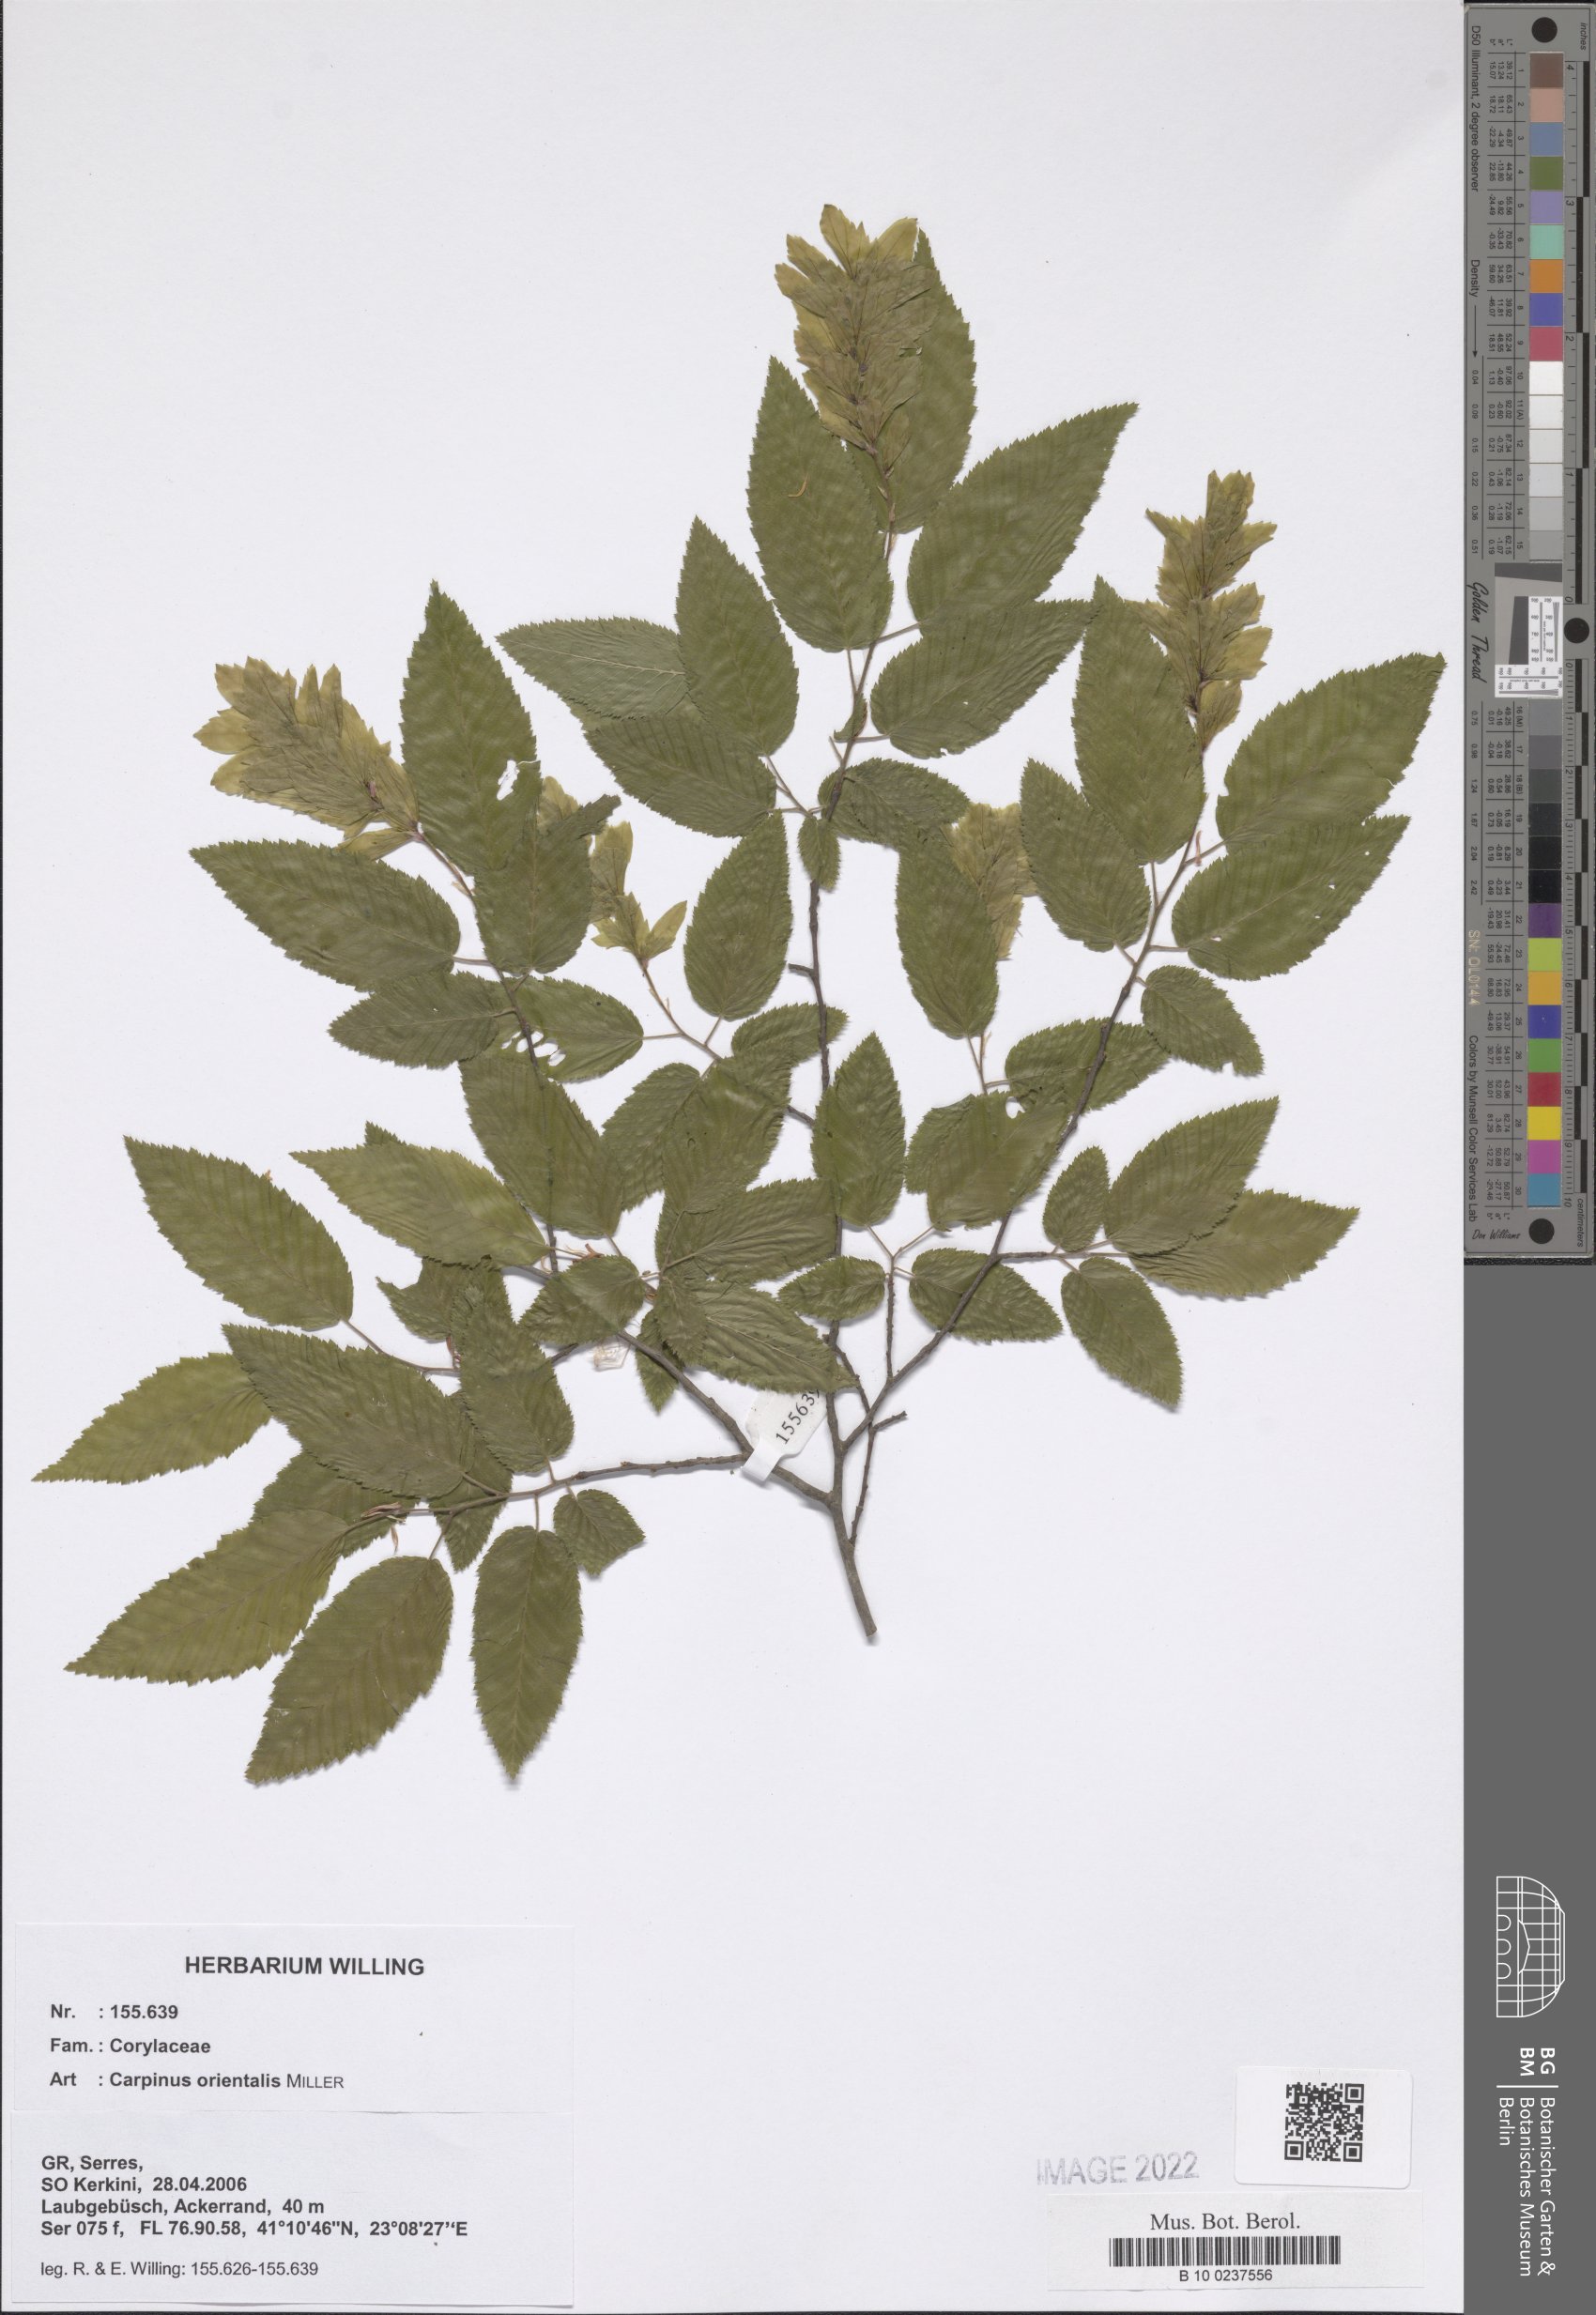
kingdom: Plantae
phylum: Tracheophyta
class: Magnoliopsida
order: Fagales
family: Betulaceae
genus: Carpinus
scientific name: Carpinus orientalis
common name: Eastern hornbeam
